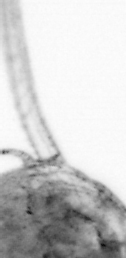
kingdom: Animalia
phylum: Arthropoda
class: Copepoda
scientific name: Copepoda
